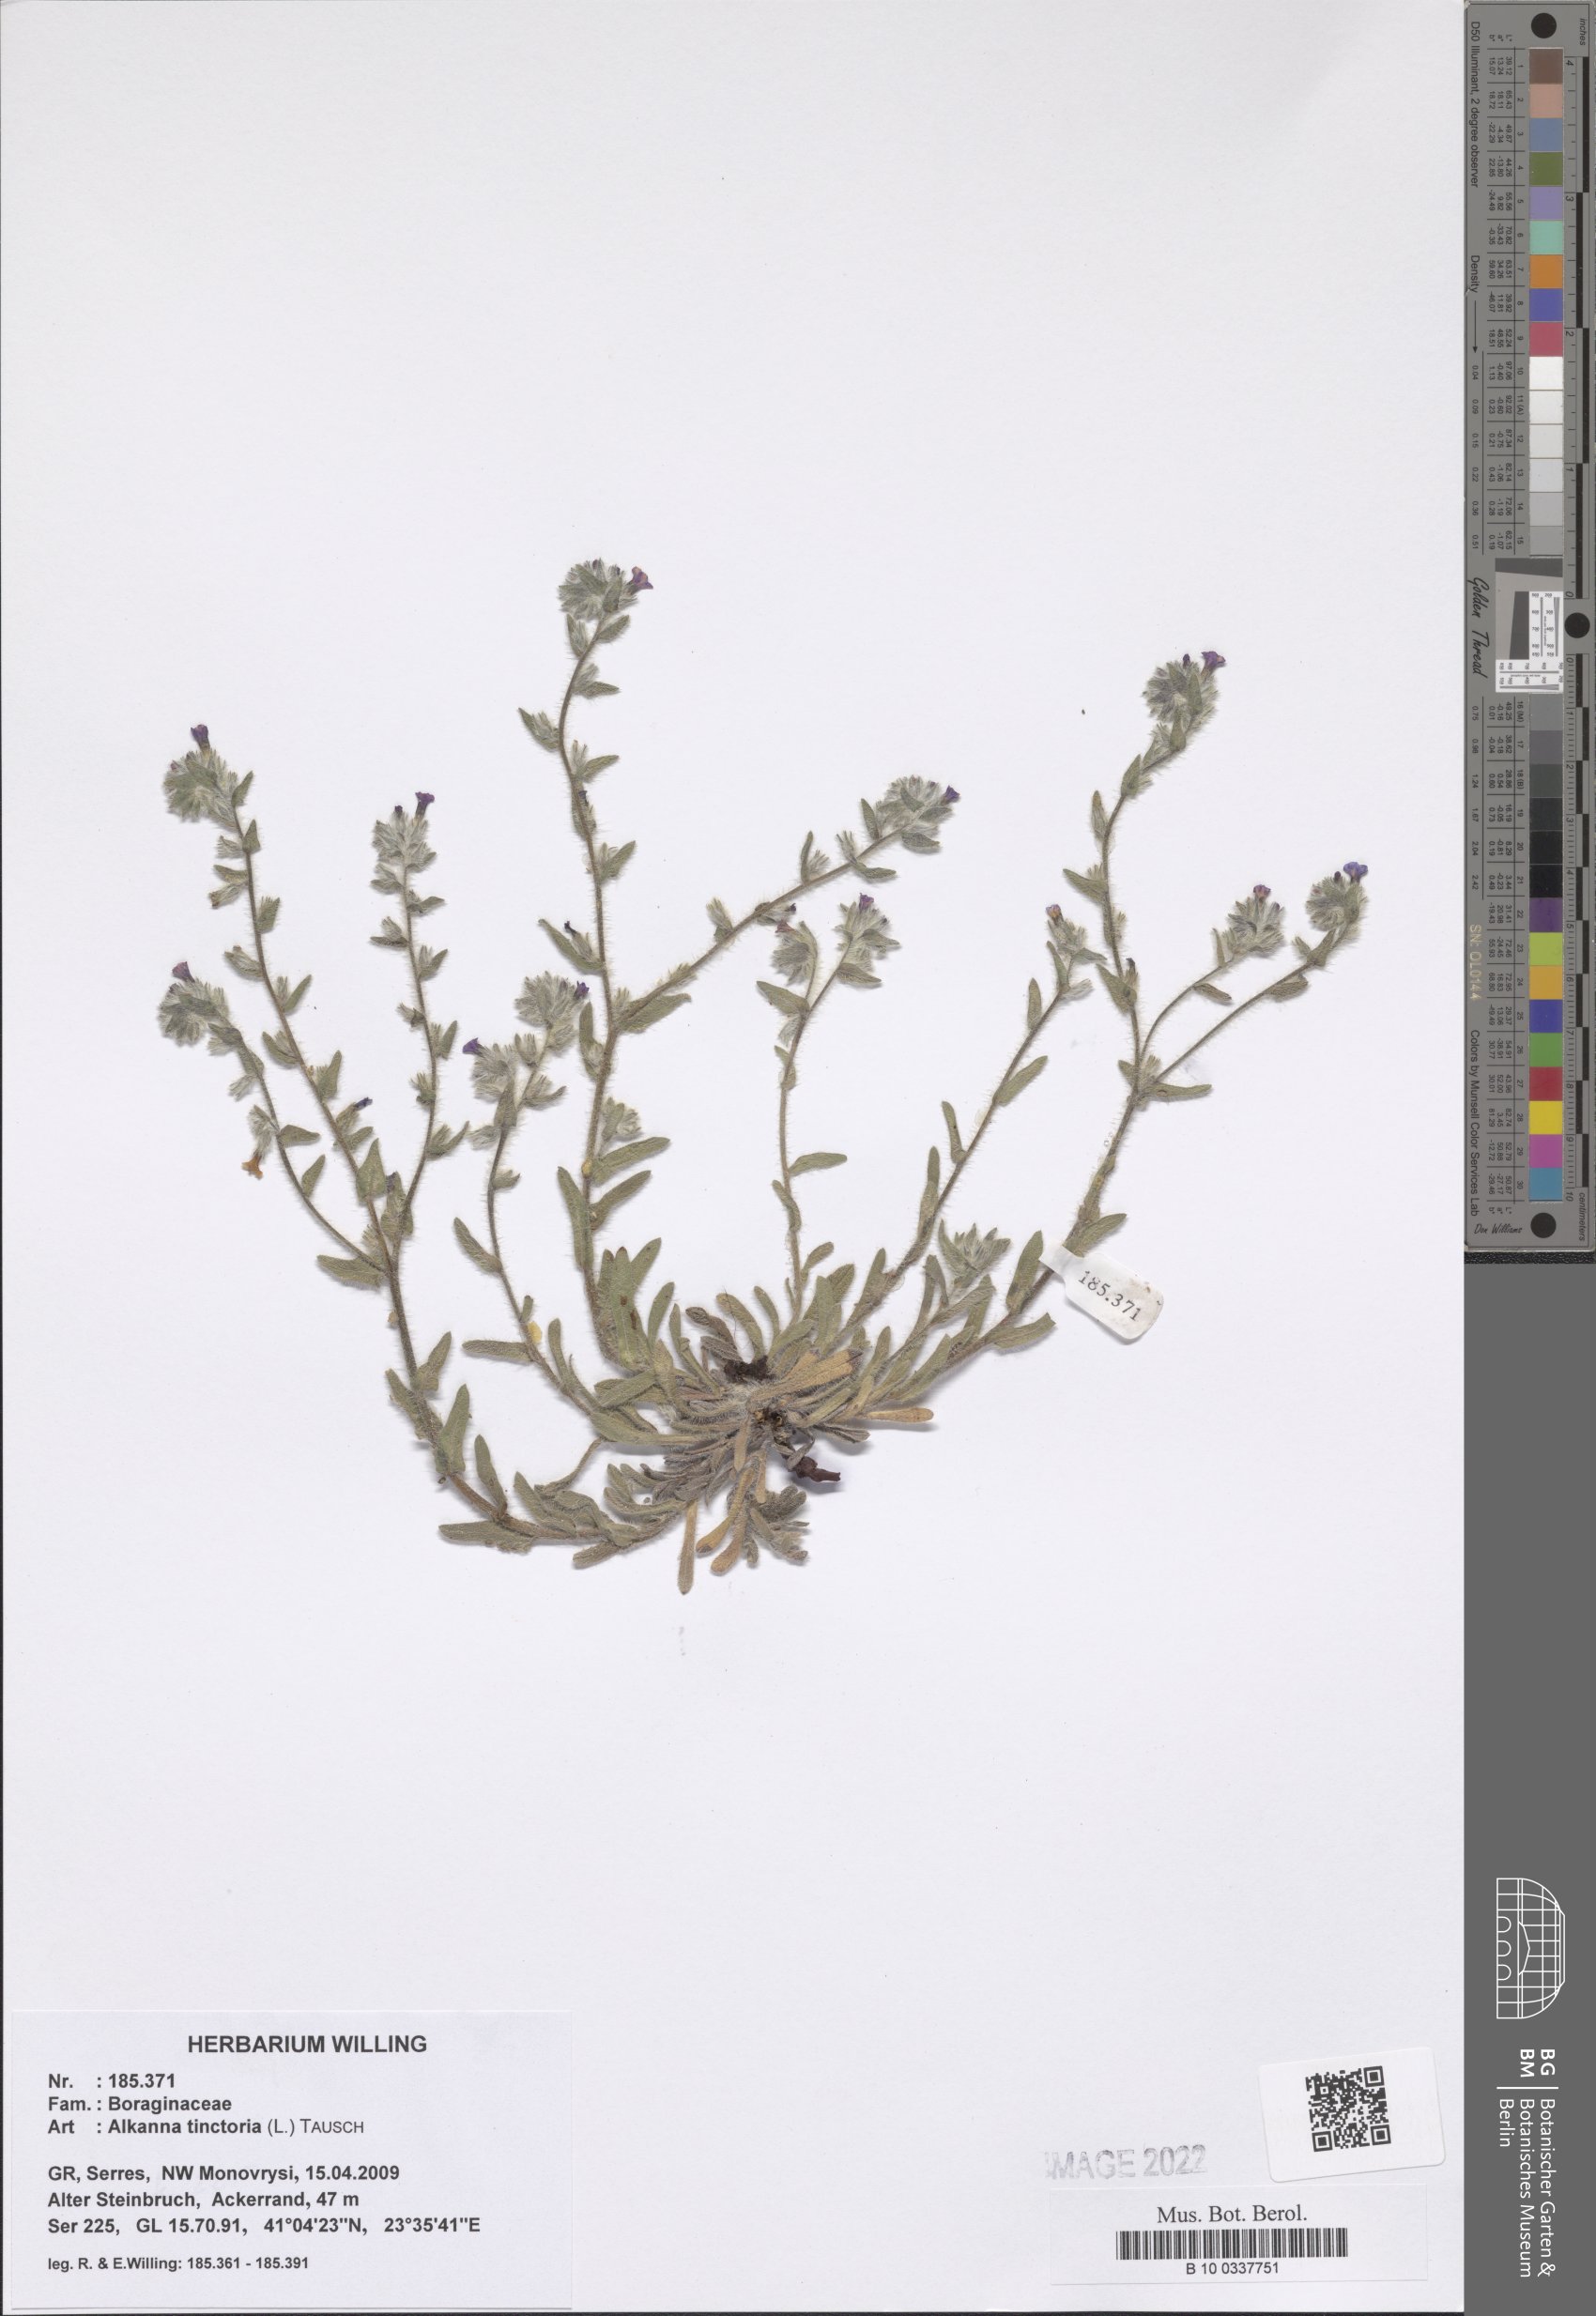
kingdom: Plantae
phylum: Tracheophyta
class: Magnoliopsida
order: Boraginales
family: Boraginaceae
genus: Alkanna
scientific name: Alkanna tinctoria
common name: Dyer's-alkanet
